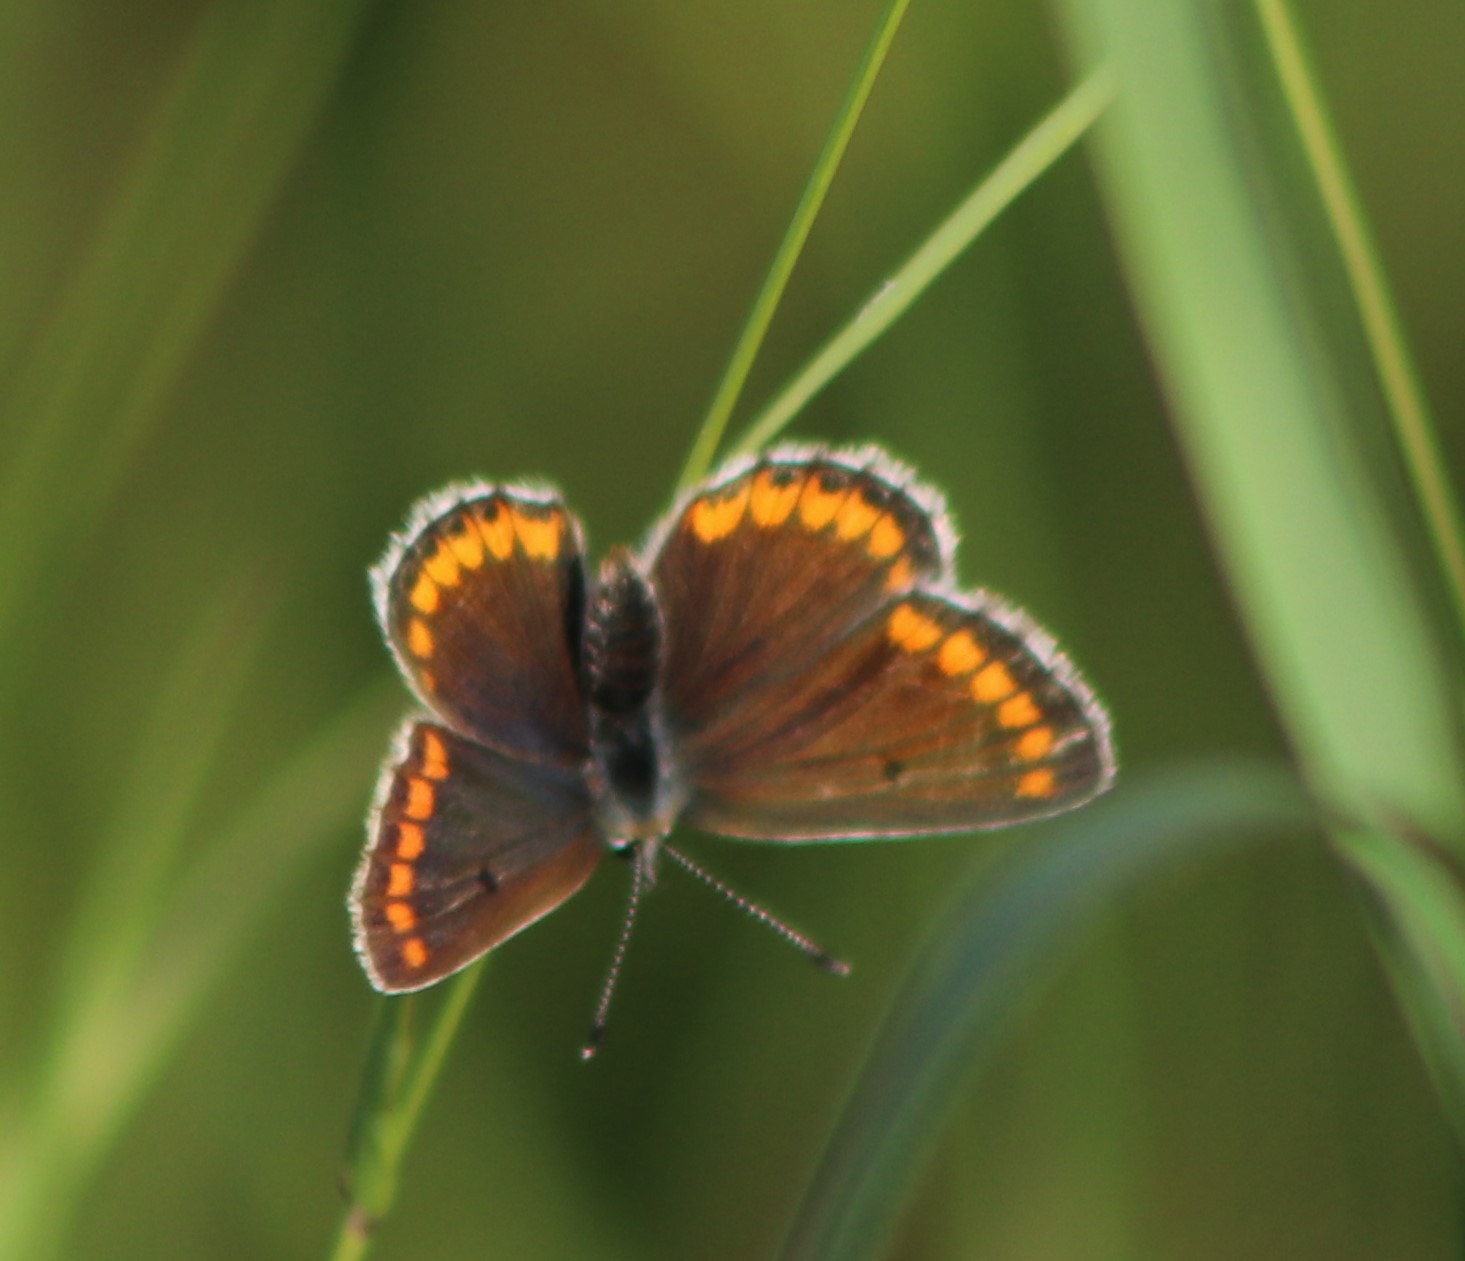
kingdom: Animalia
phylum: Arthropoda
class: Insecta
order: Lepidoptera
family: Lycaenidae
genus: Aricia
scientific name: Aricia agestis
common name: Rødplettet blåfugl
